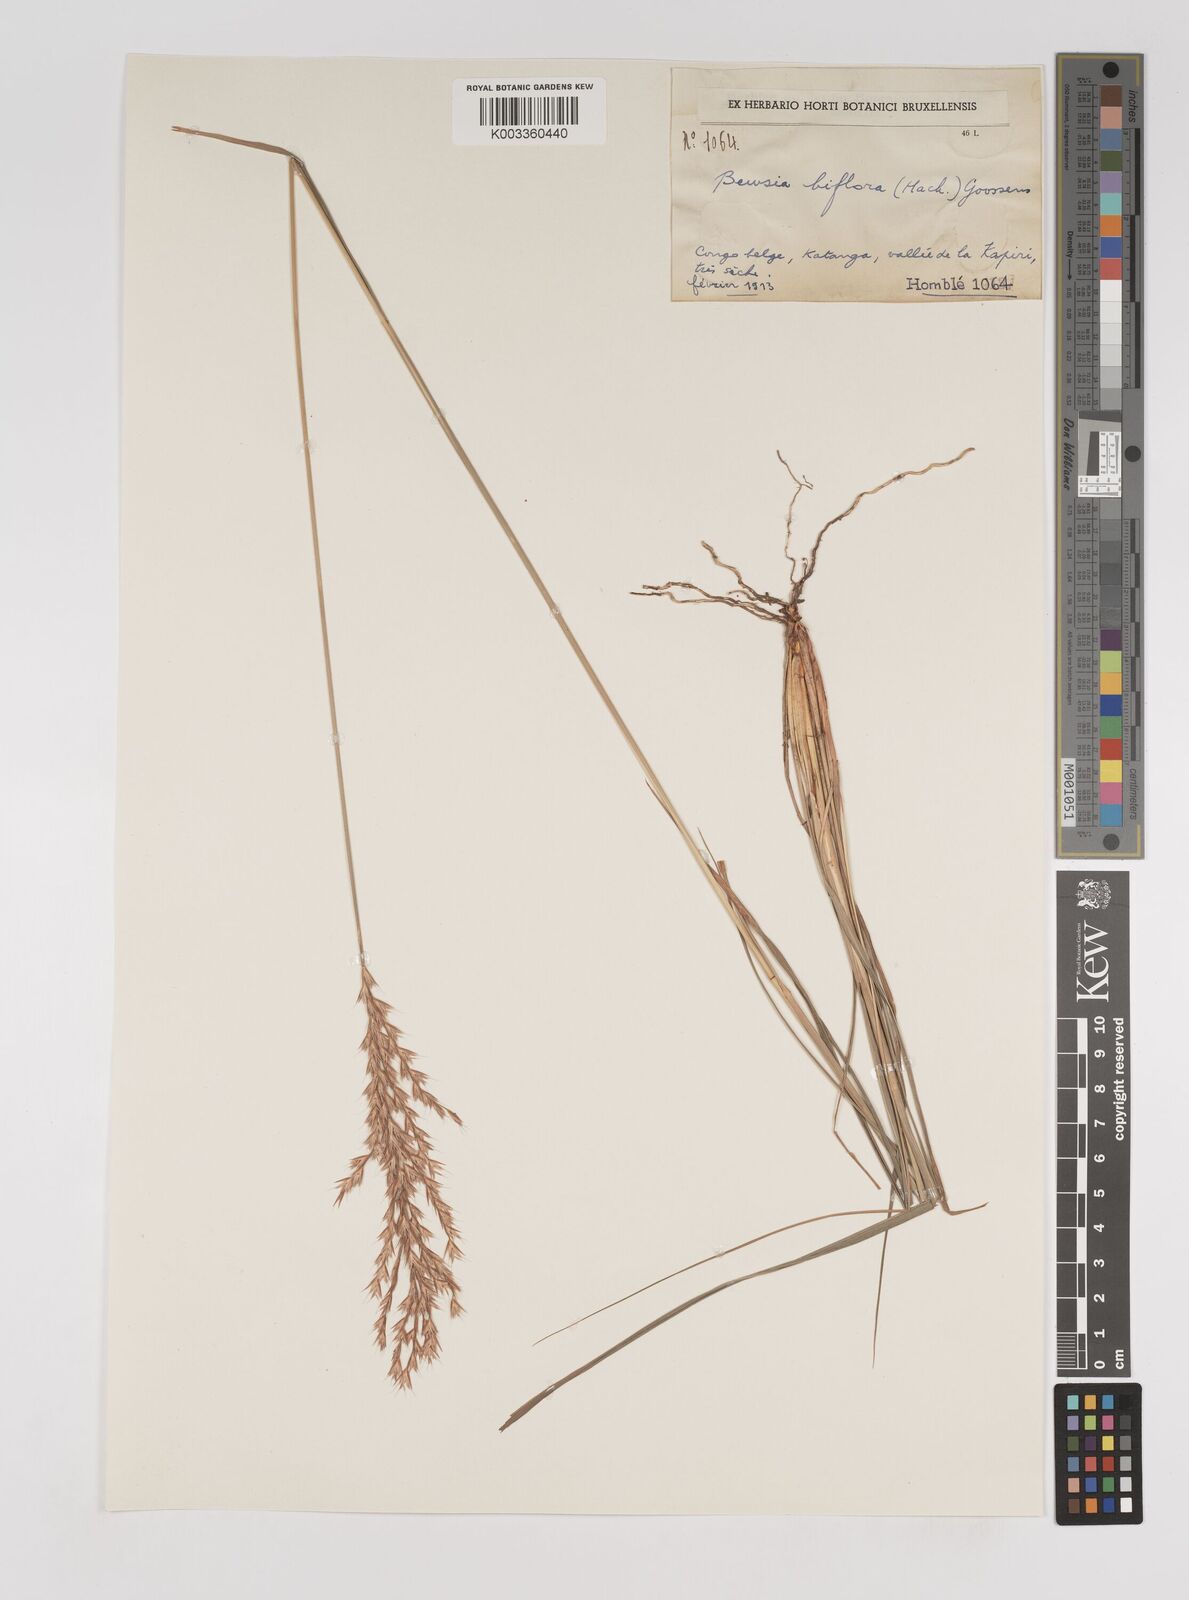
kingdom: Plantae
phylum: Tracheophyta
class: Liliopsida
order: Poales
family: Poaceae
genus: Bewsia
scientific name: Bewsia biflora
